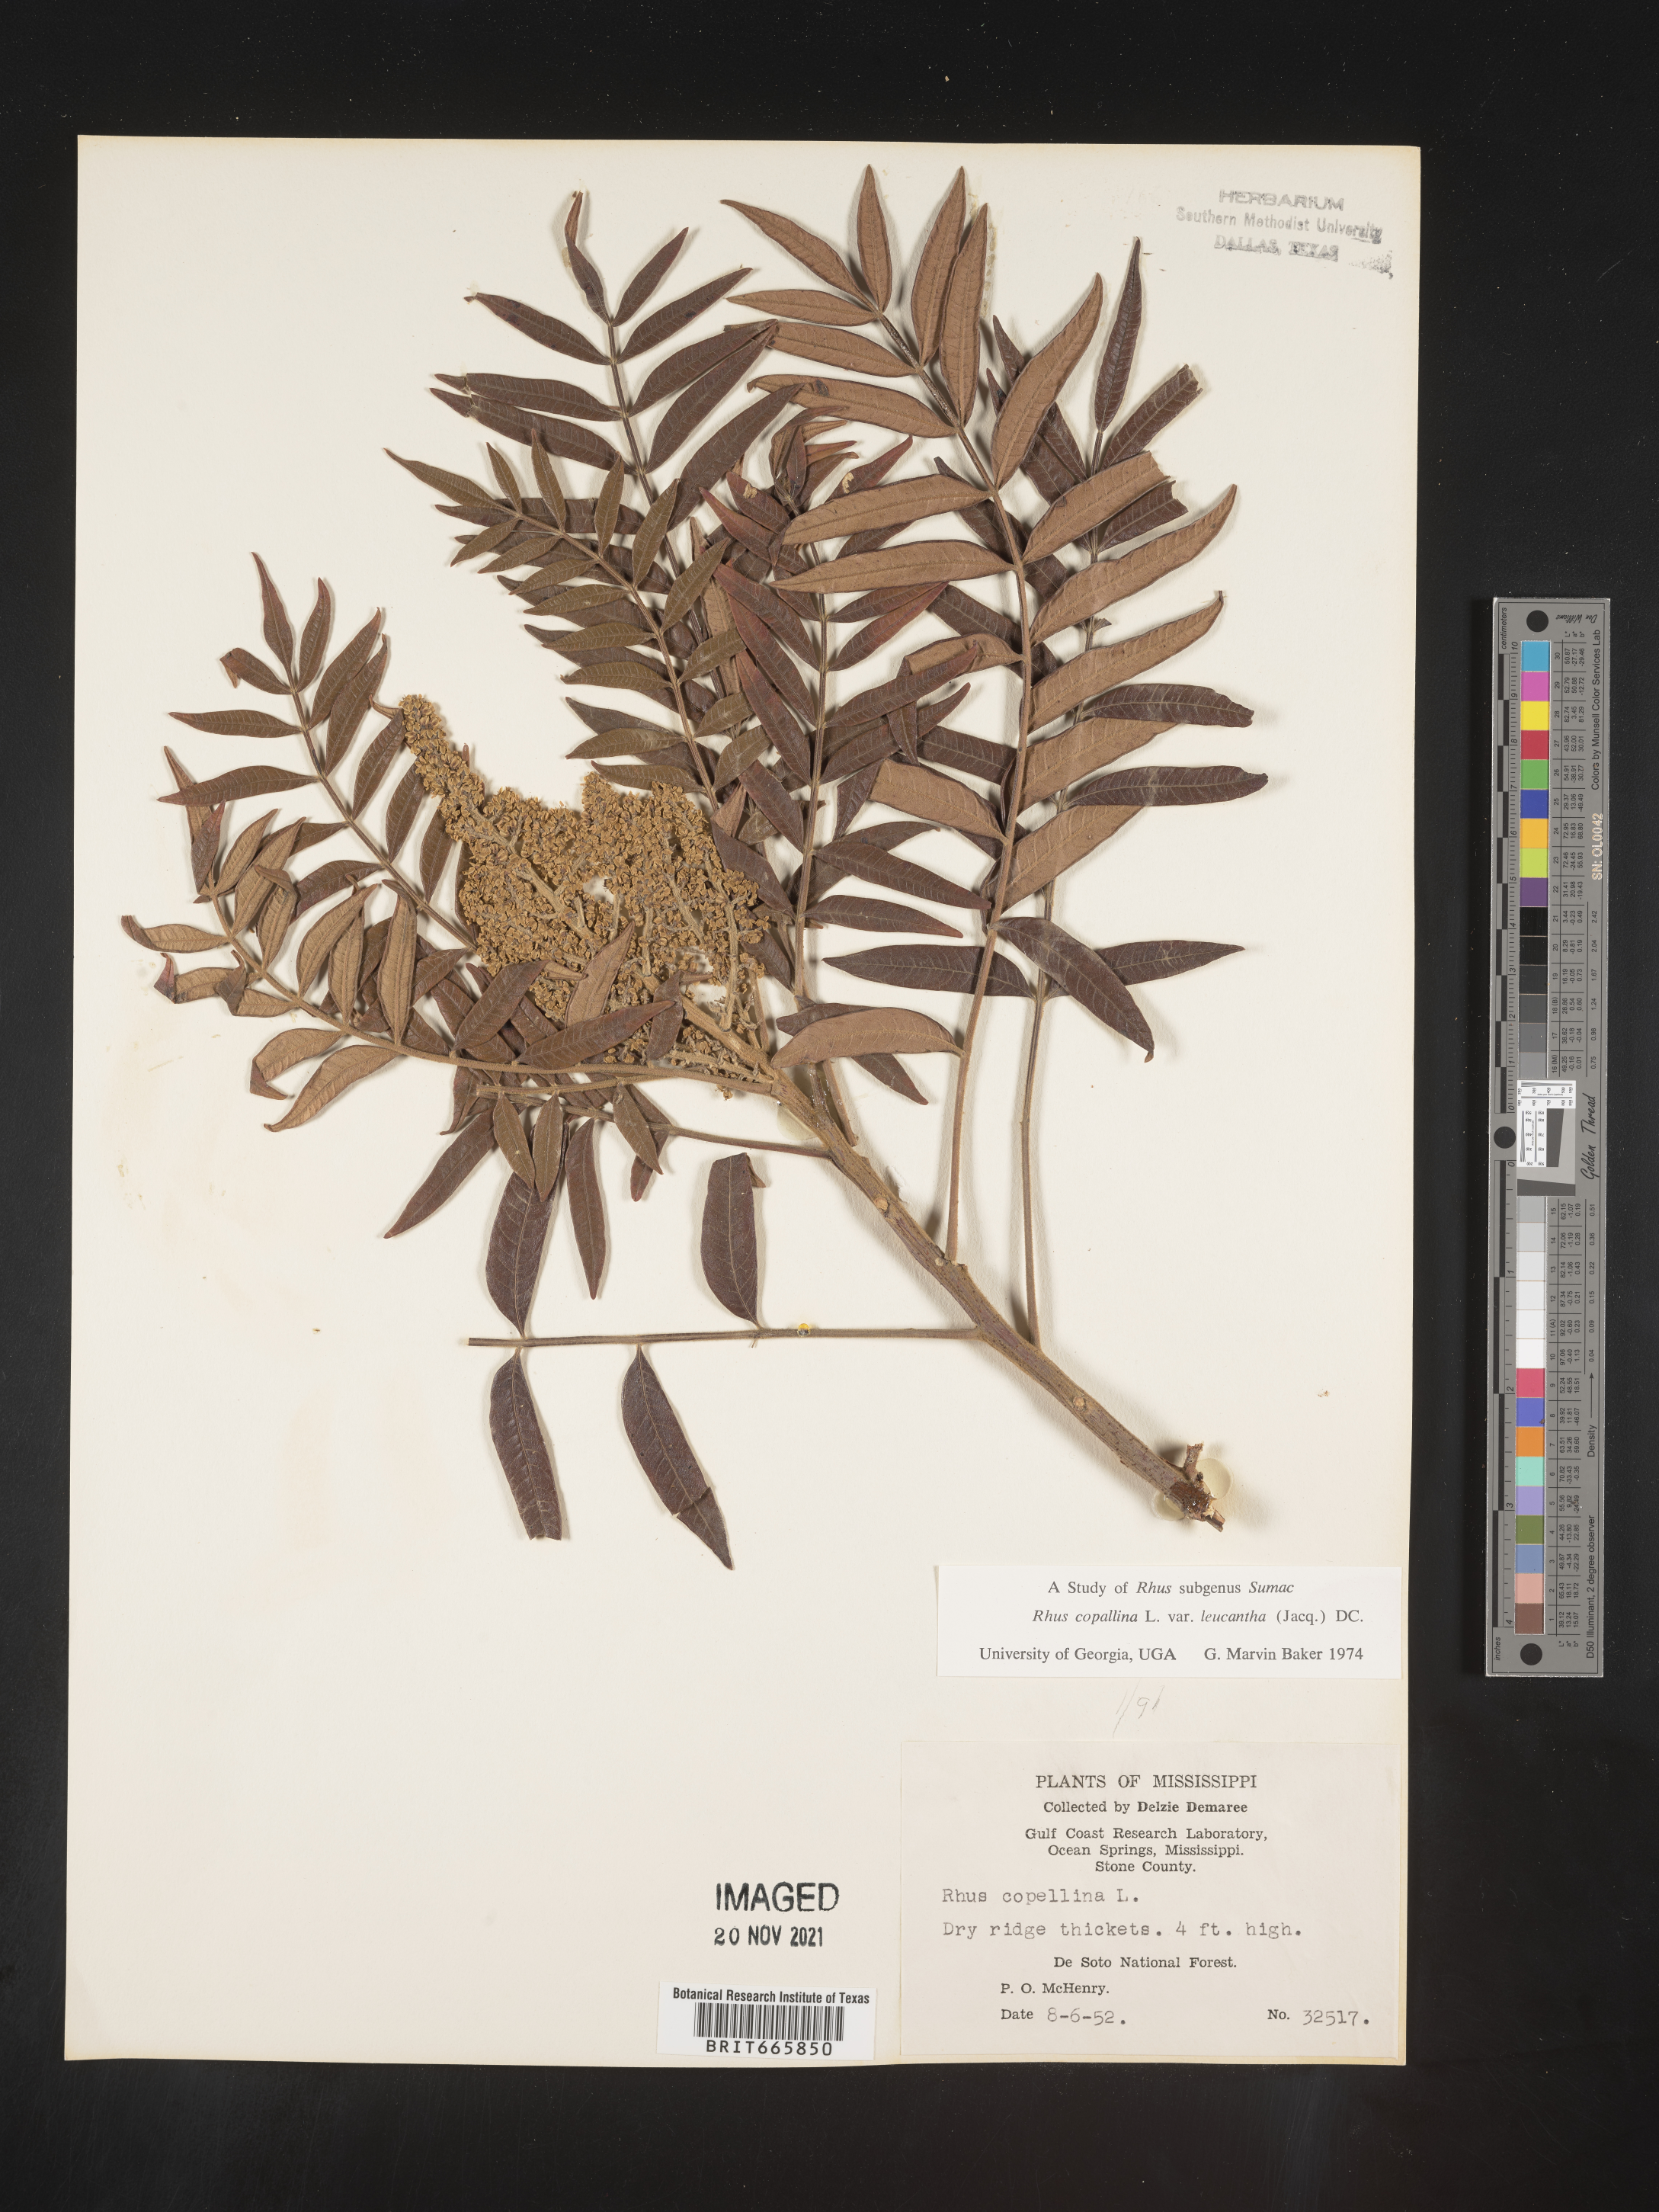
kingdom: Plantae
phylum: Tracheophyta
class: Magnoliopsida
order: Sapindales
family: Anacardiaceae
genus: Rhus
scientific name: Rhus copallina
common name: Shining sumac
